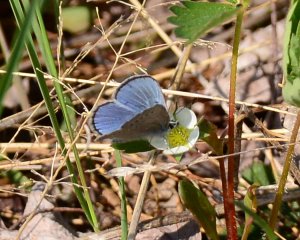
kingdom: Animalia
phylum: Arthropoda
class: Insecta
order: Lepidoptera
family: Lycaenidae
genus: Glaucopsyche
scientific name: Glaucopsyche lygdamus
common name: Silvery Blue
